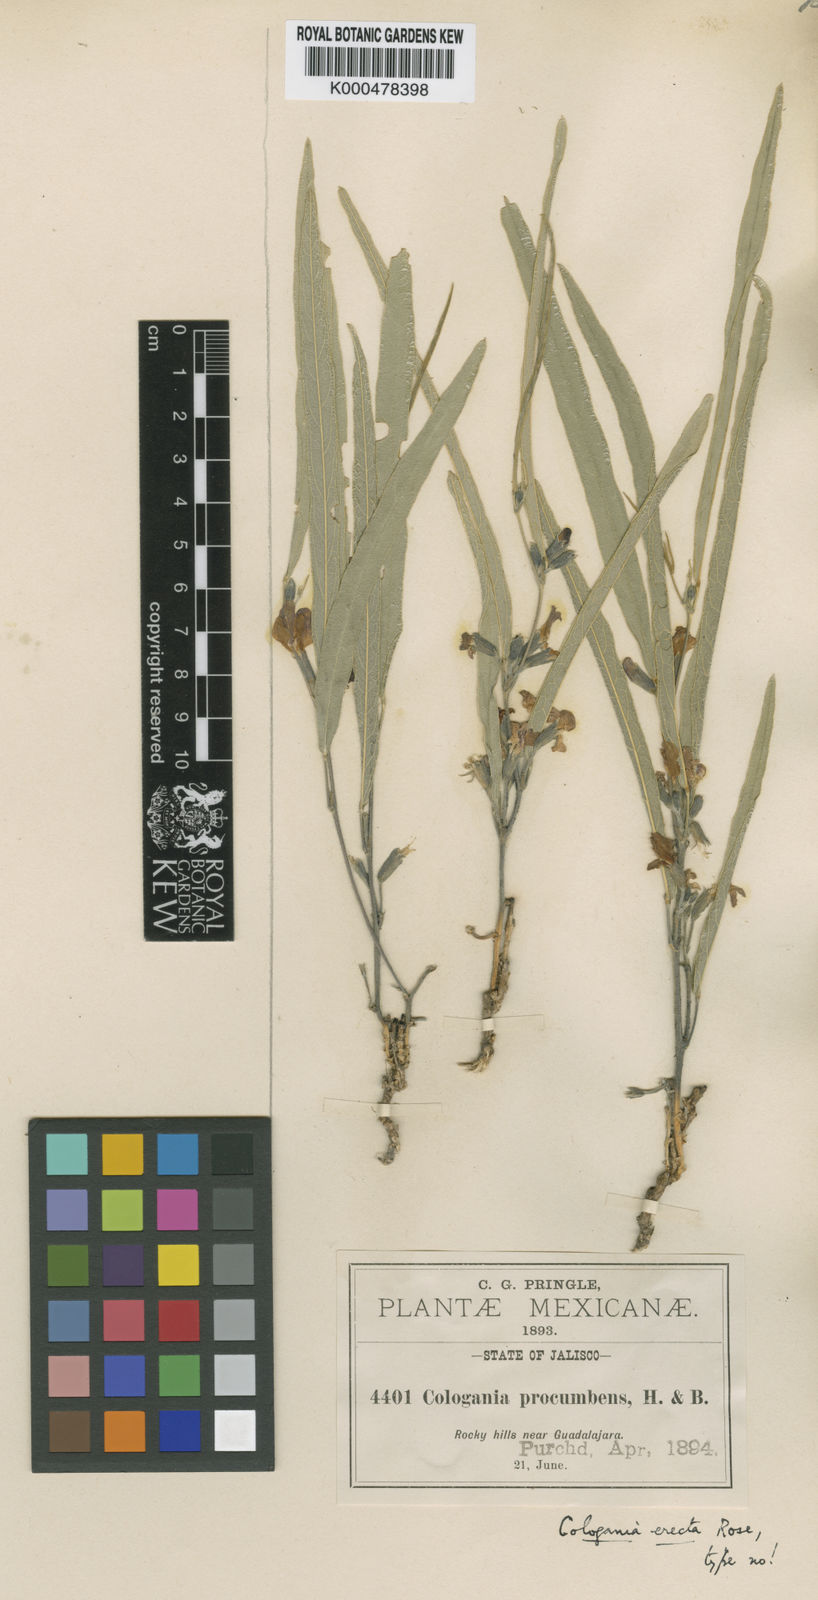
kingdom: Plantae
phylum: Tracheophyta
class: Magnoliopsida
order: Fabales
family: Fabaceae
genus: Cologania
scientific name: Cologania procumbens
